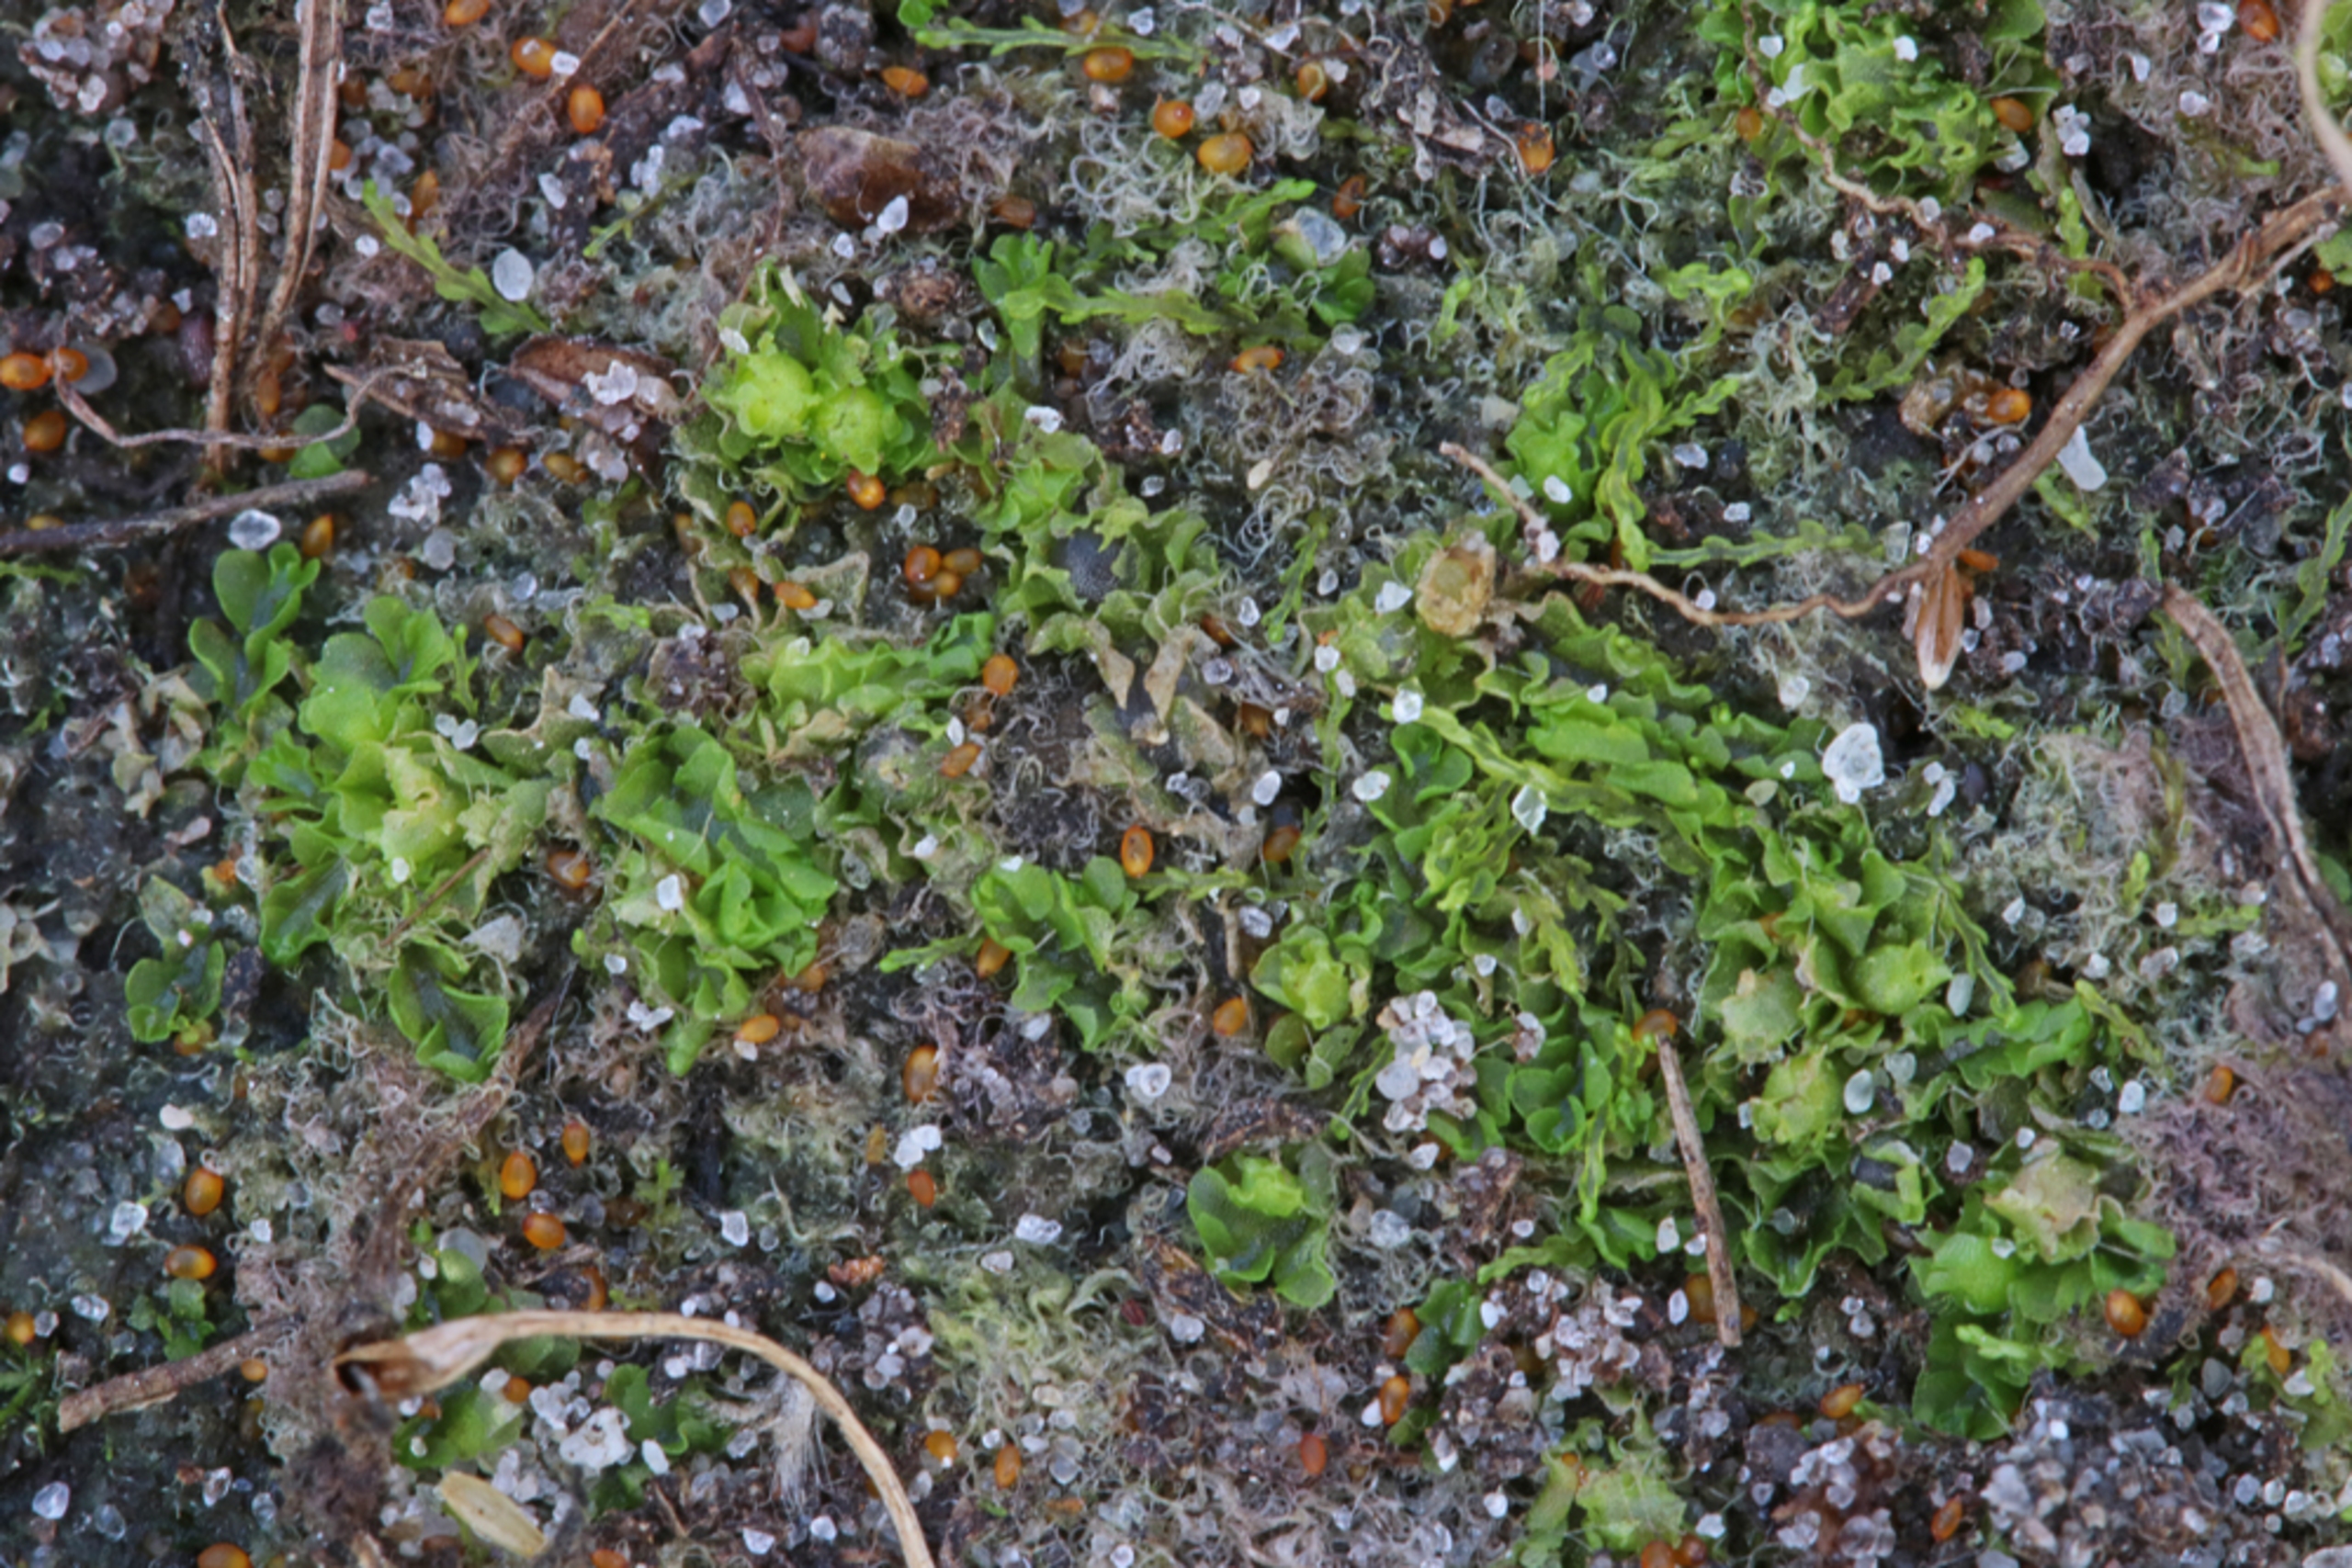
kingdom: Plantae
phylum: Marchantiophyta
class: Jungermanniopsida
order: Fossombroniales
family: Fossombroniaceae
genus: Fossombronia
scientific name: Fossombronia foveolata
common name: Netsporet klokkesvøb
